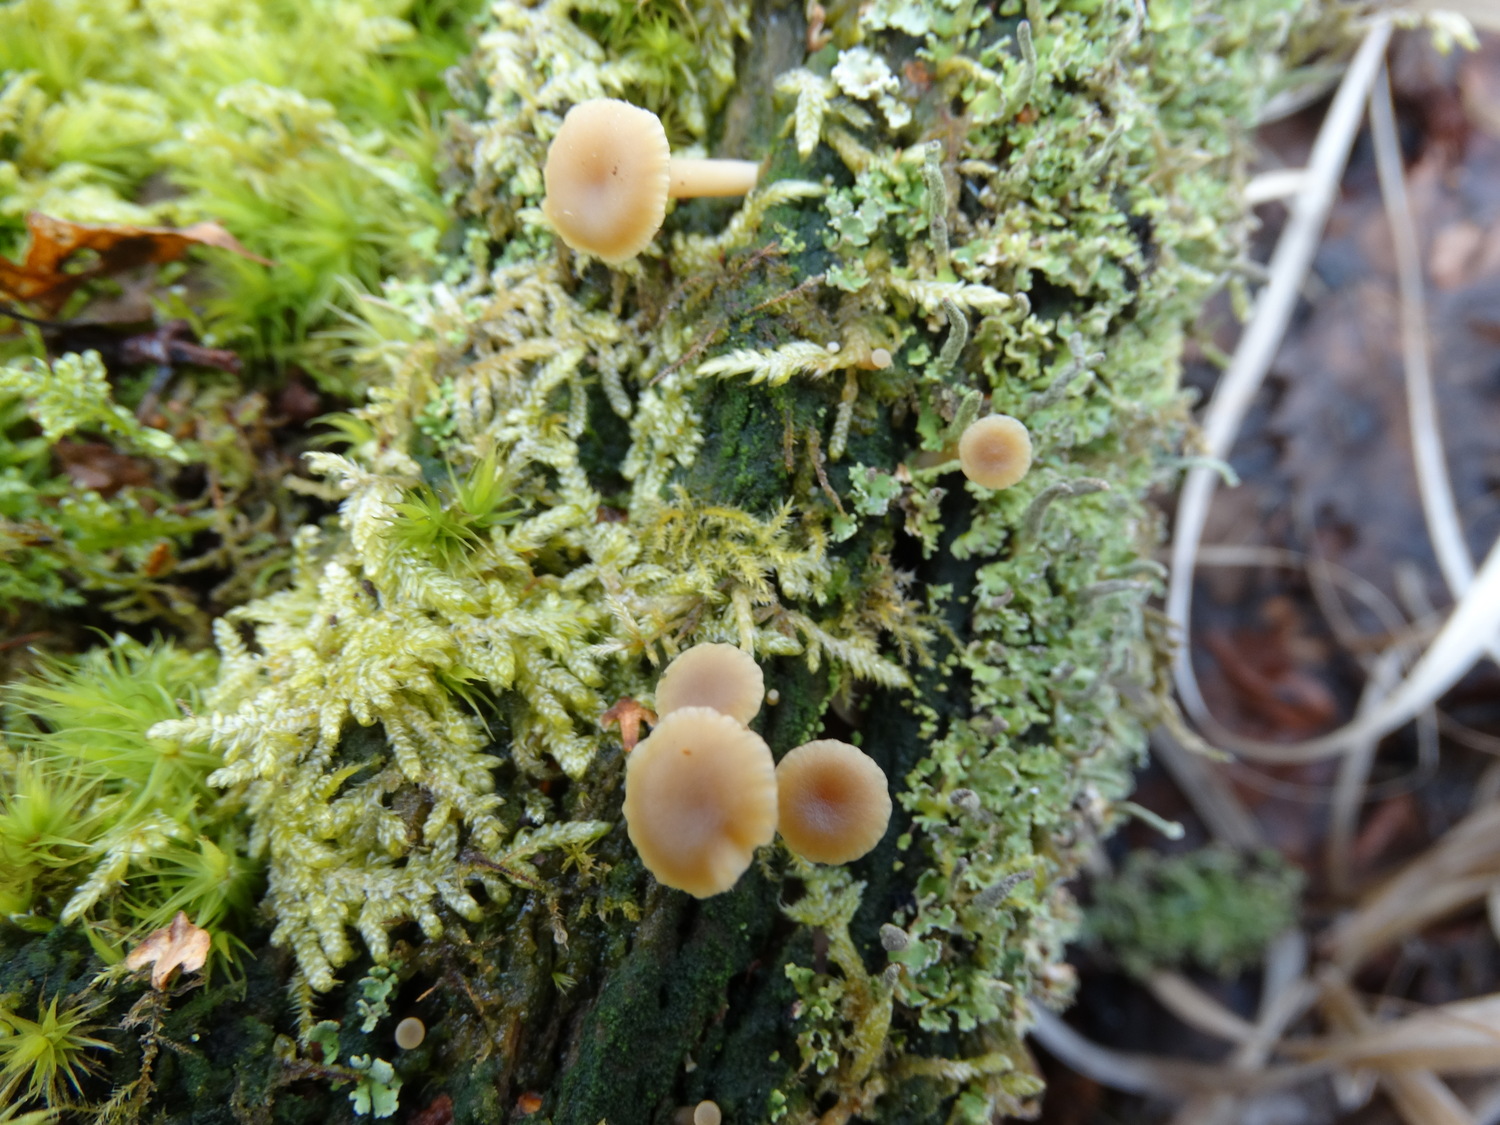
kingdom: Fungi
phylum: Basidiomycota
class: Agaricomycetes
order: Agaricales
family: Hygrophoraceae
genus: Lichenomphalia
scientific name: Lichenomphalia umbellifera
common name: tørve-lavhat
